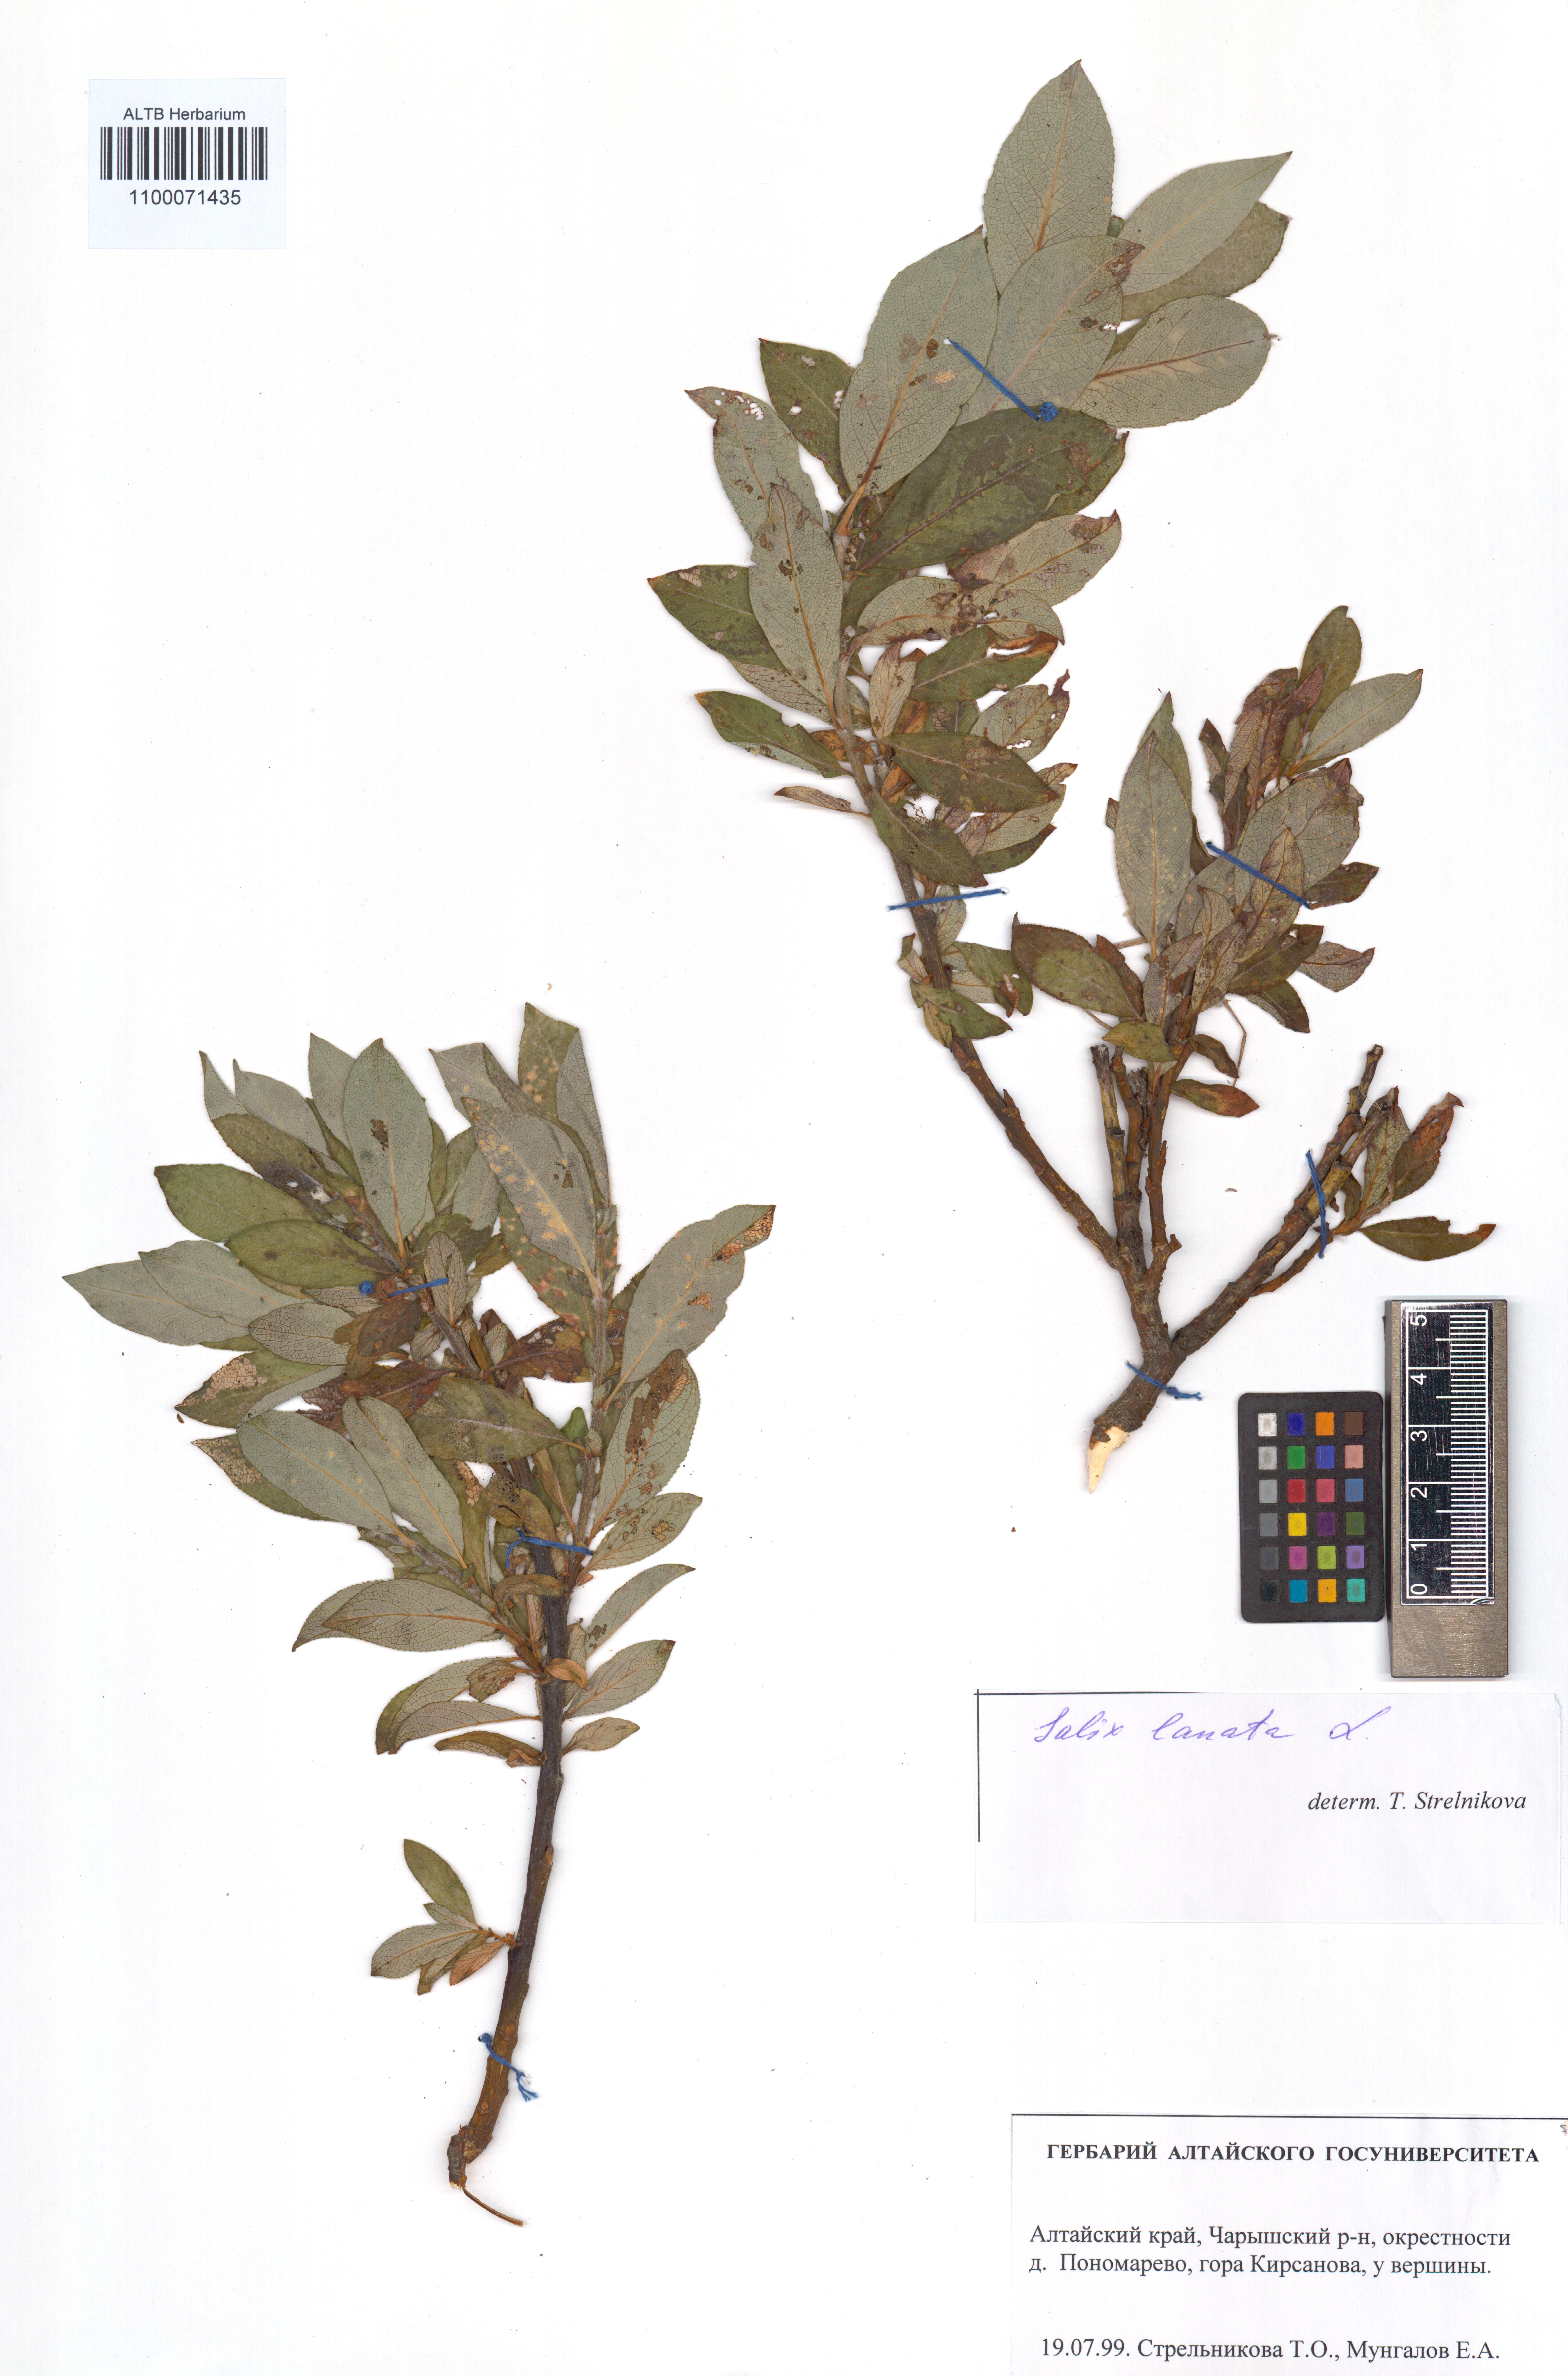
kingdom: Plantae
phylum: Tracheophyta
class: Magnoliopsida
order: Malpighiales
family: Salicaceae
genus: Salix
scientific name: Salix lanata
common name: Woolly willow
